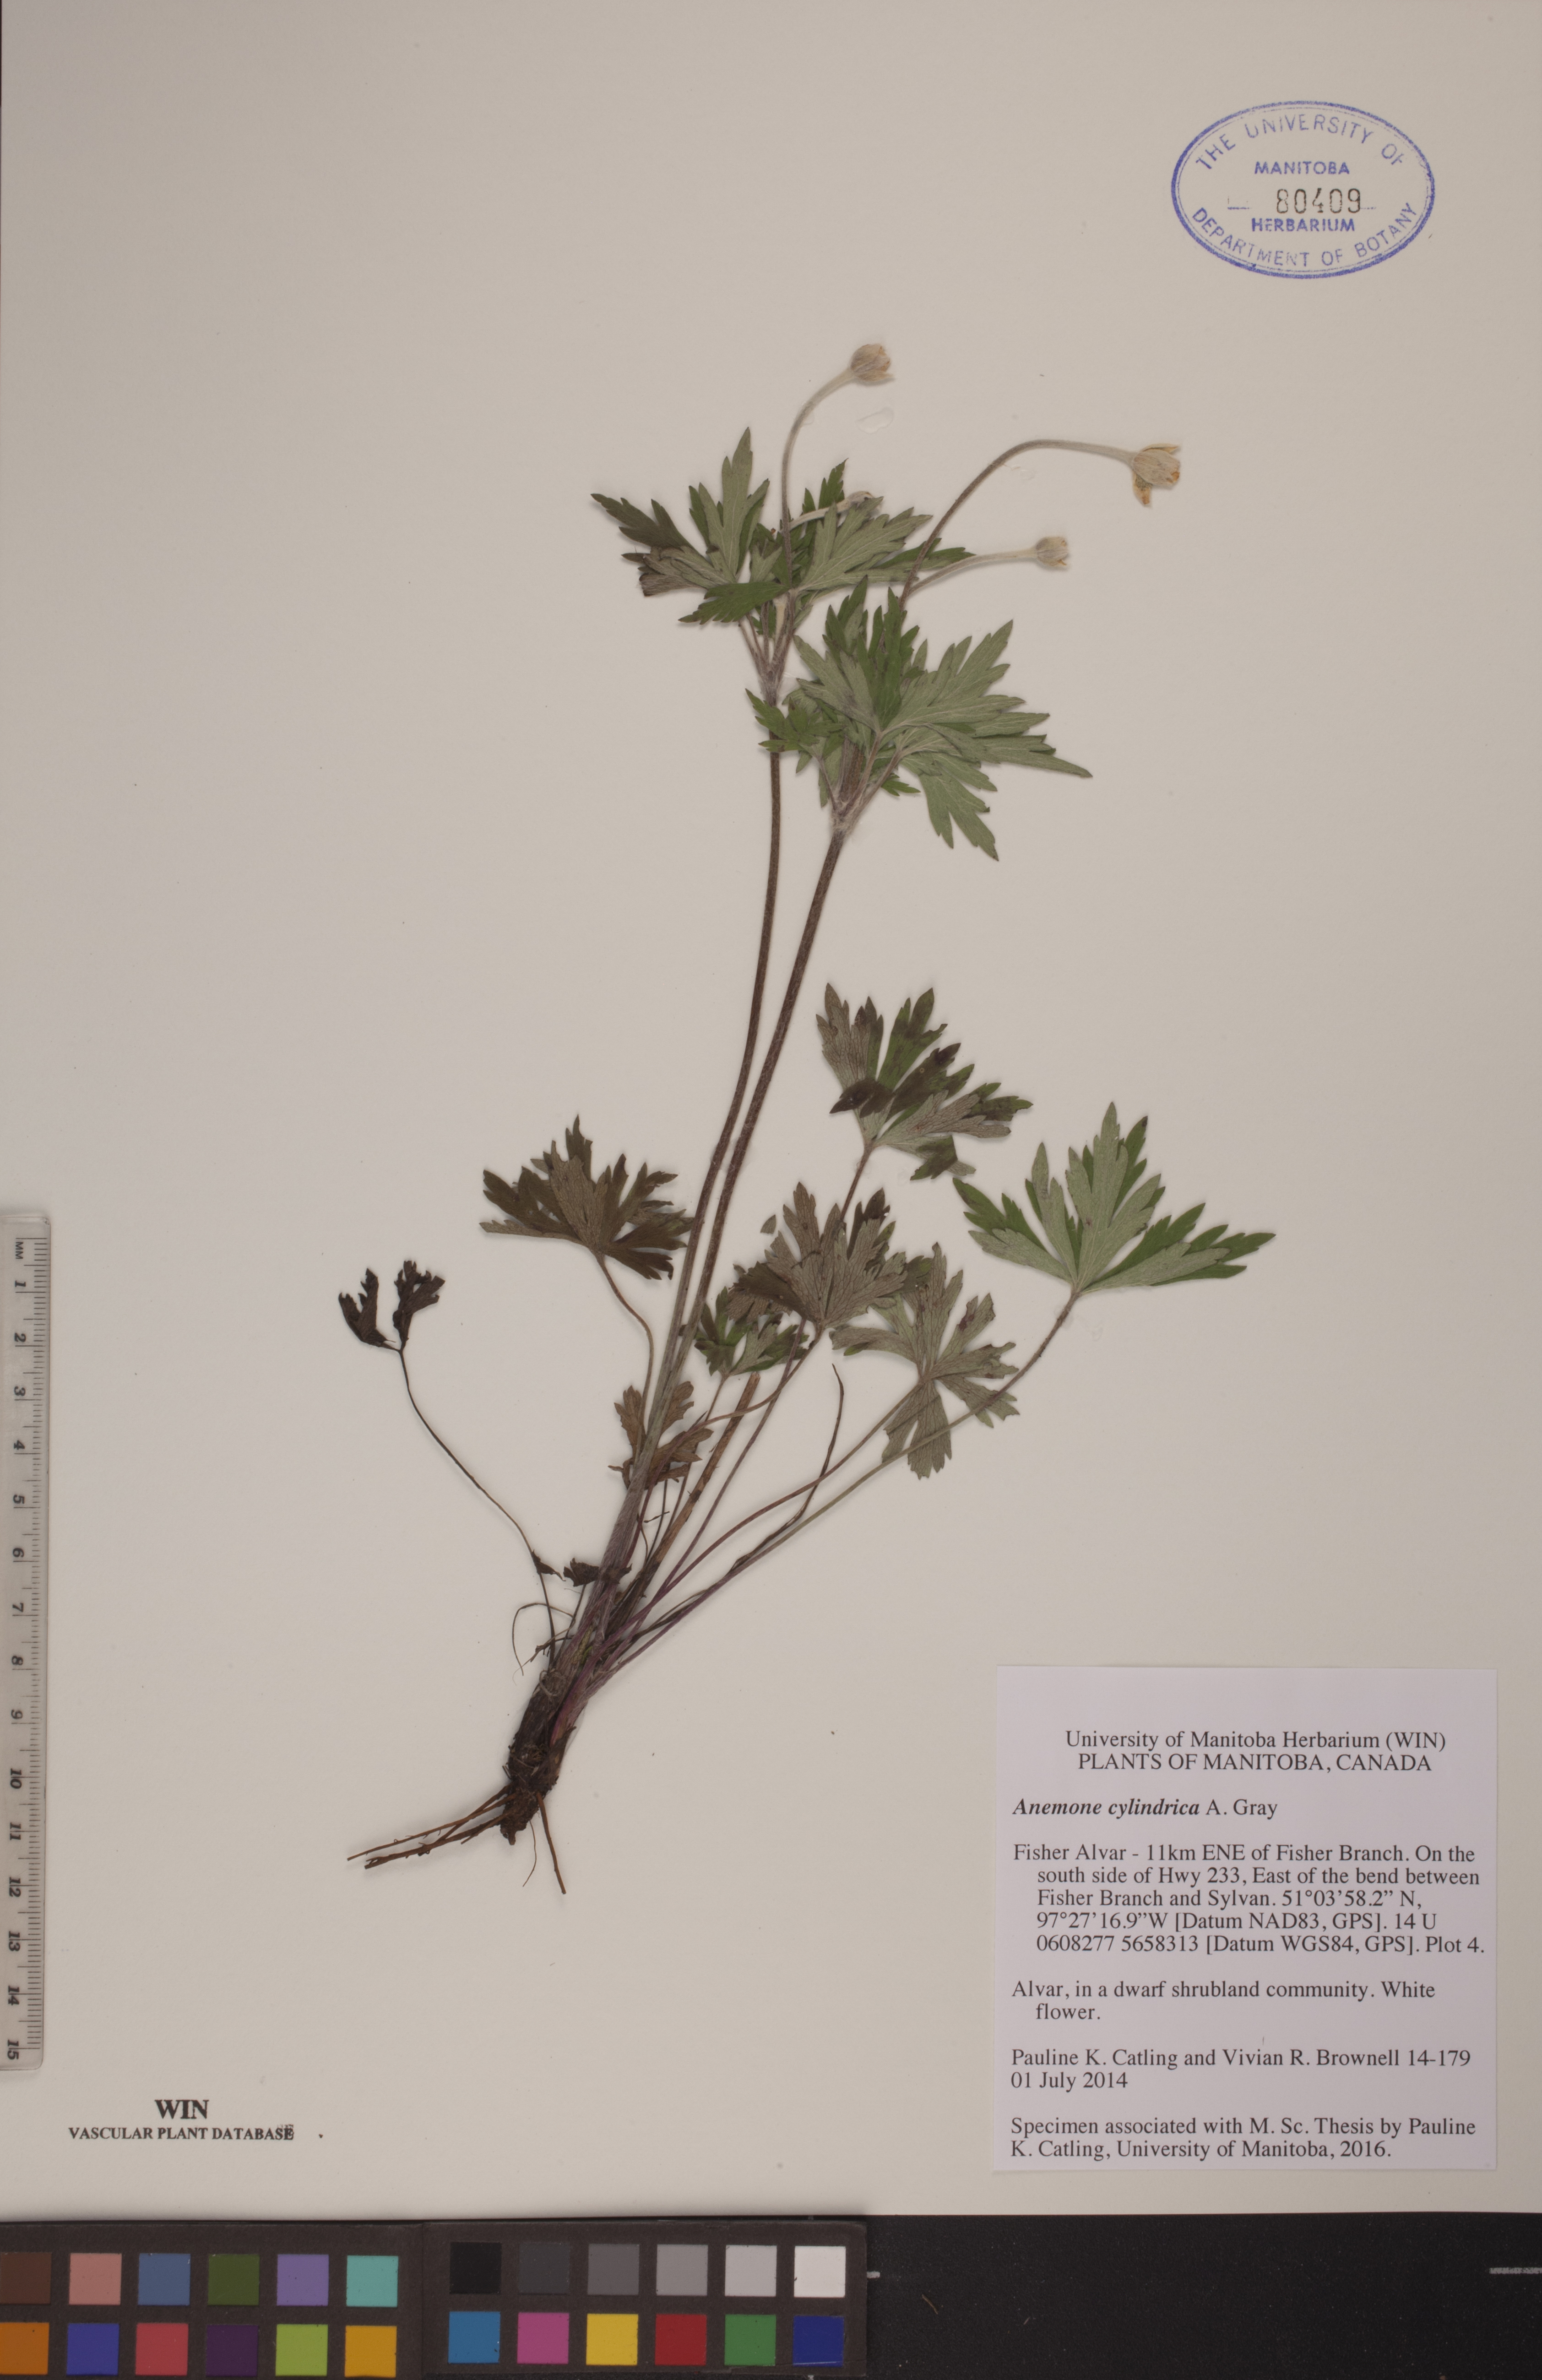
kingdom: Plantae
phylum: Tracheophyta
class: Magnoliopsida
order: Ranunculales
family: Ranunculaceae
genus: Anemone
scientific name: Anemone cylindrica
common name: Candle anemone
